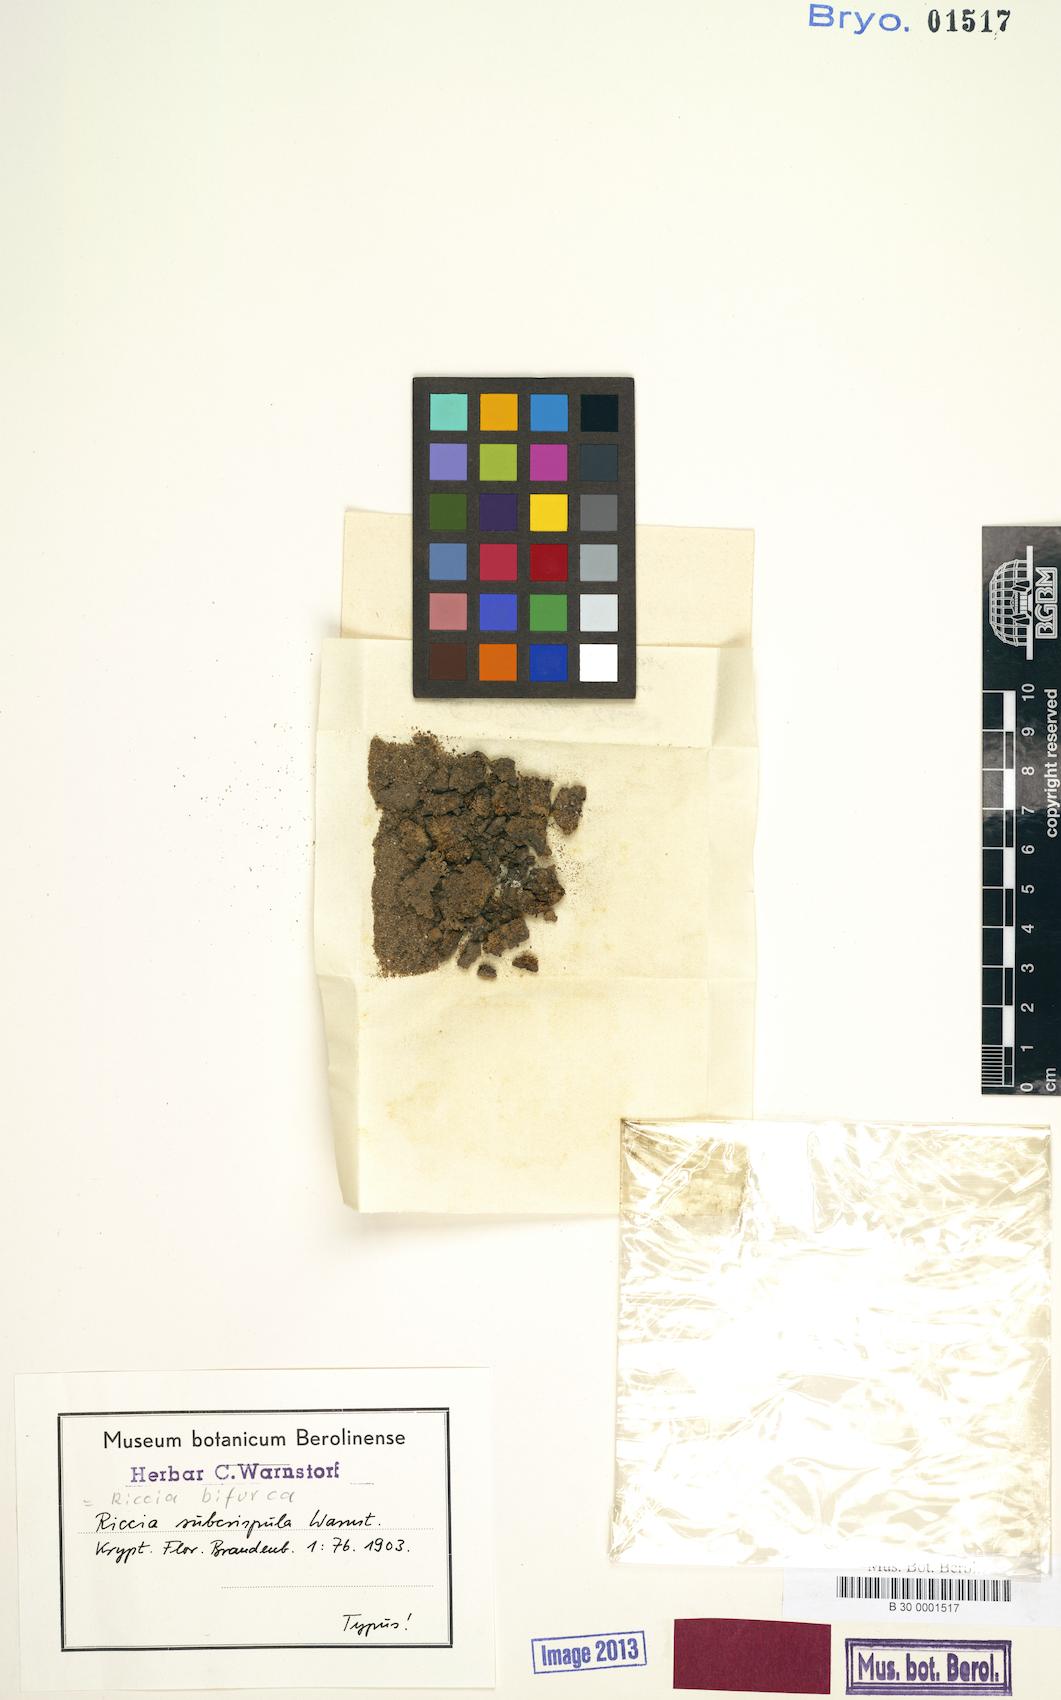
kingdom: Plantae
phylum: Marchantiophyta
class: Marchantiopsida
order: Marchantiales
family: Ricciaceae
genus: Riccia
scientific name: Riccia bifurca
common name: Lizard crystalwort
